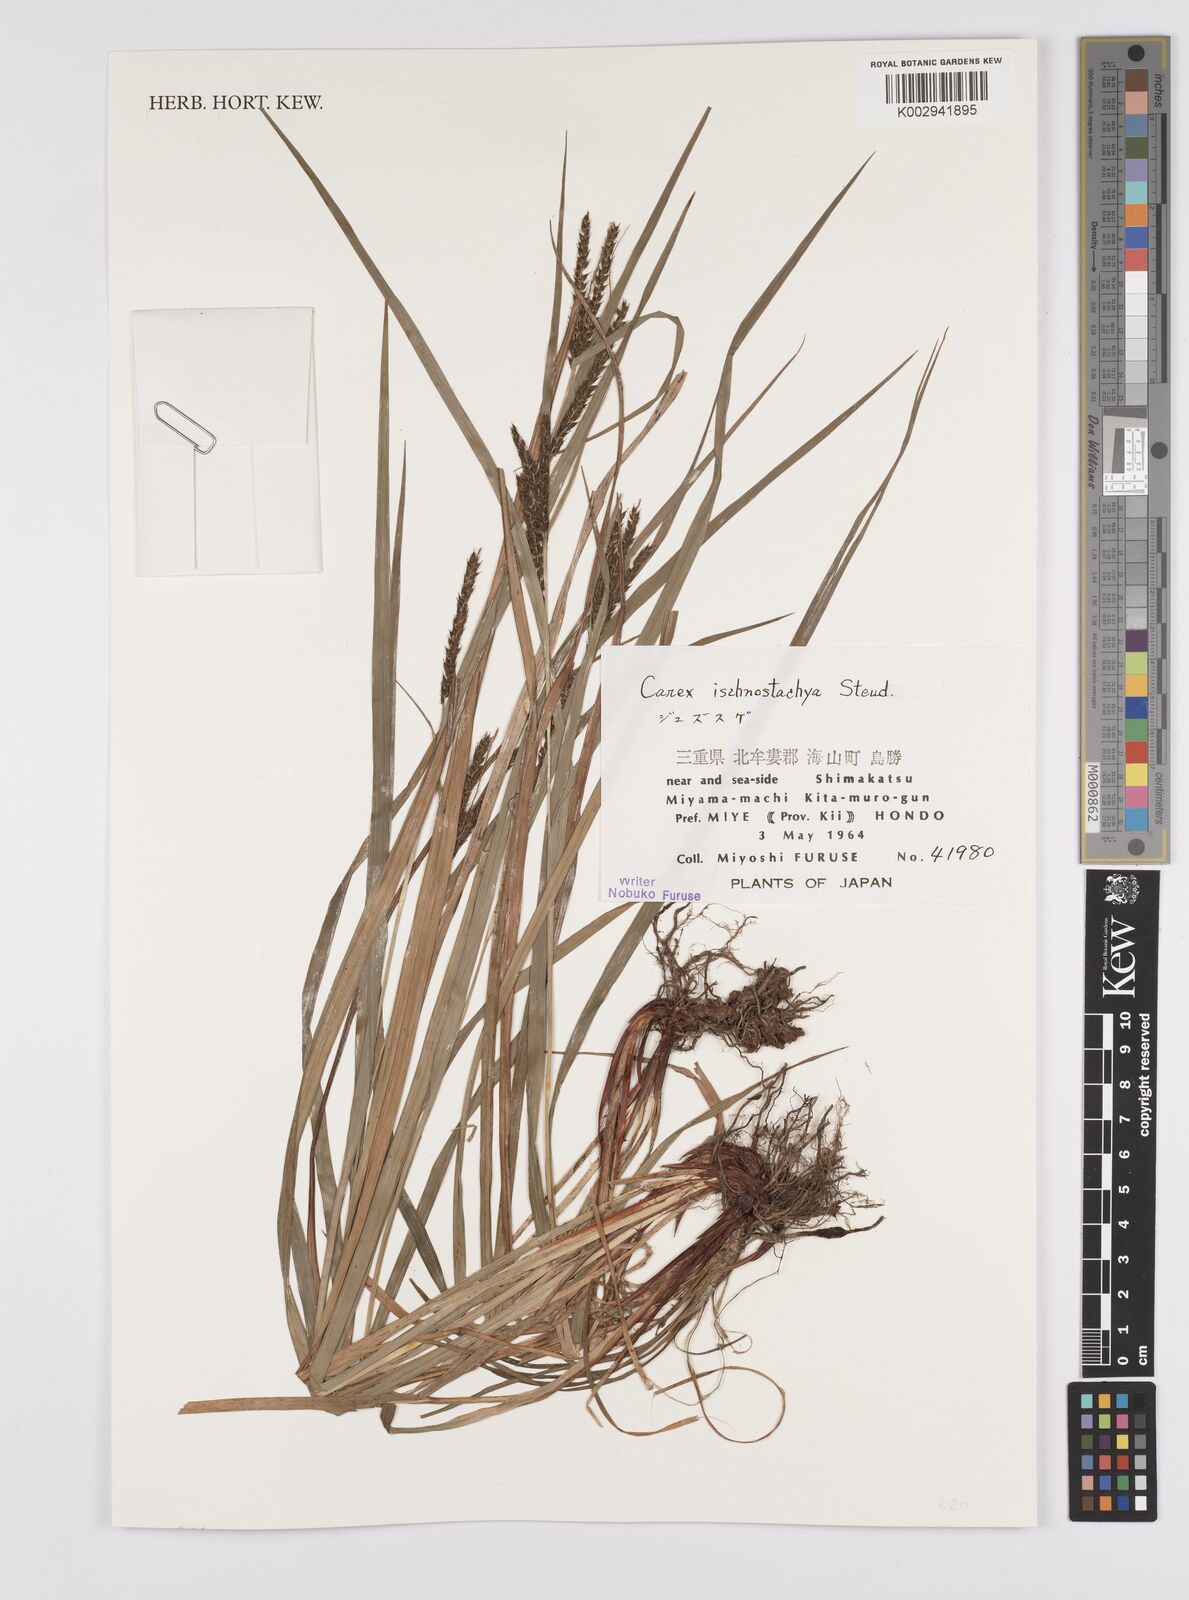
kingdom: Plantae
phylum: Tracheophyta
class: Liliopsida
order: Poales
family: Cyperaceae
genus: Carex
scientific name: Carex ischnostachya
